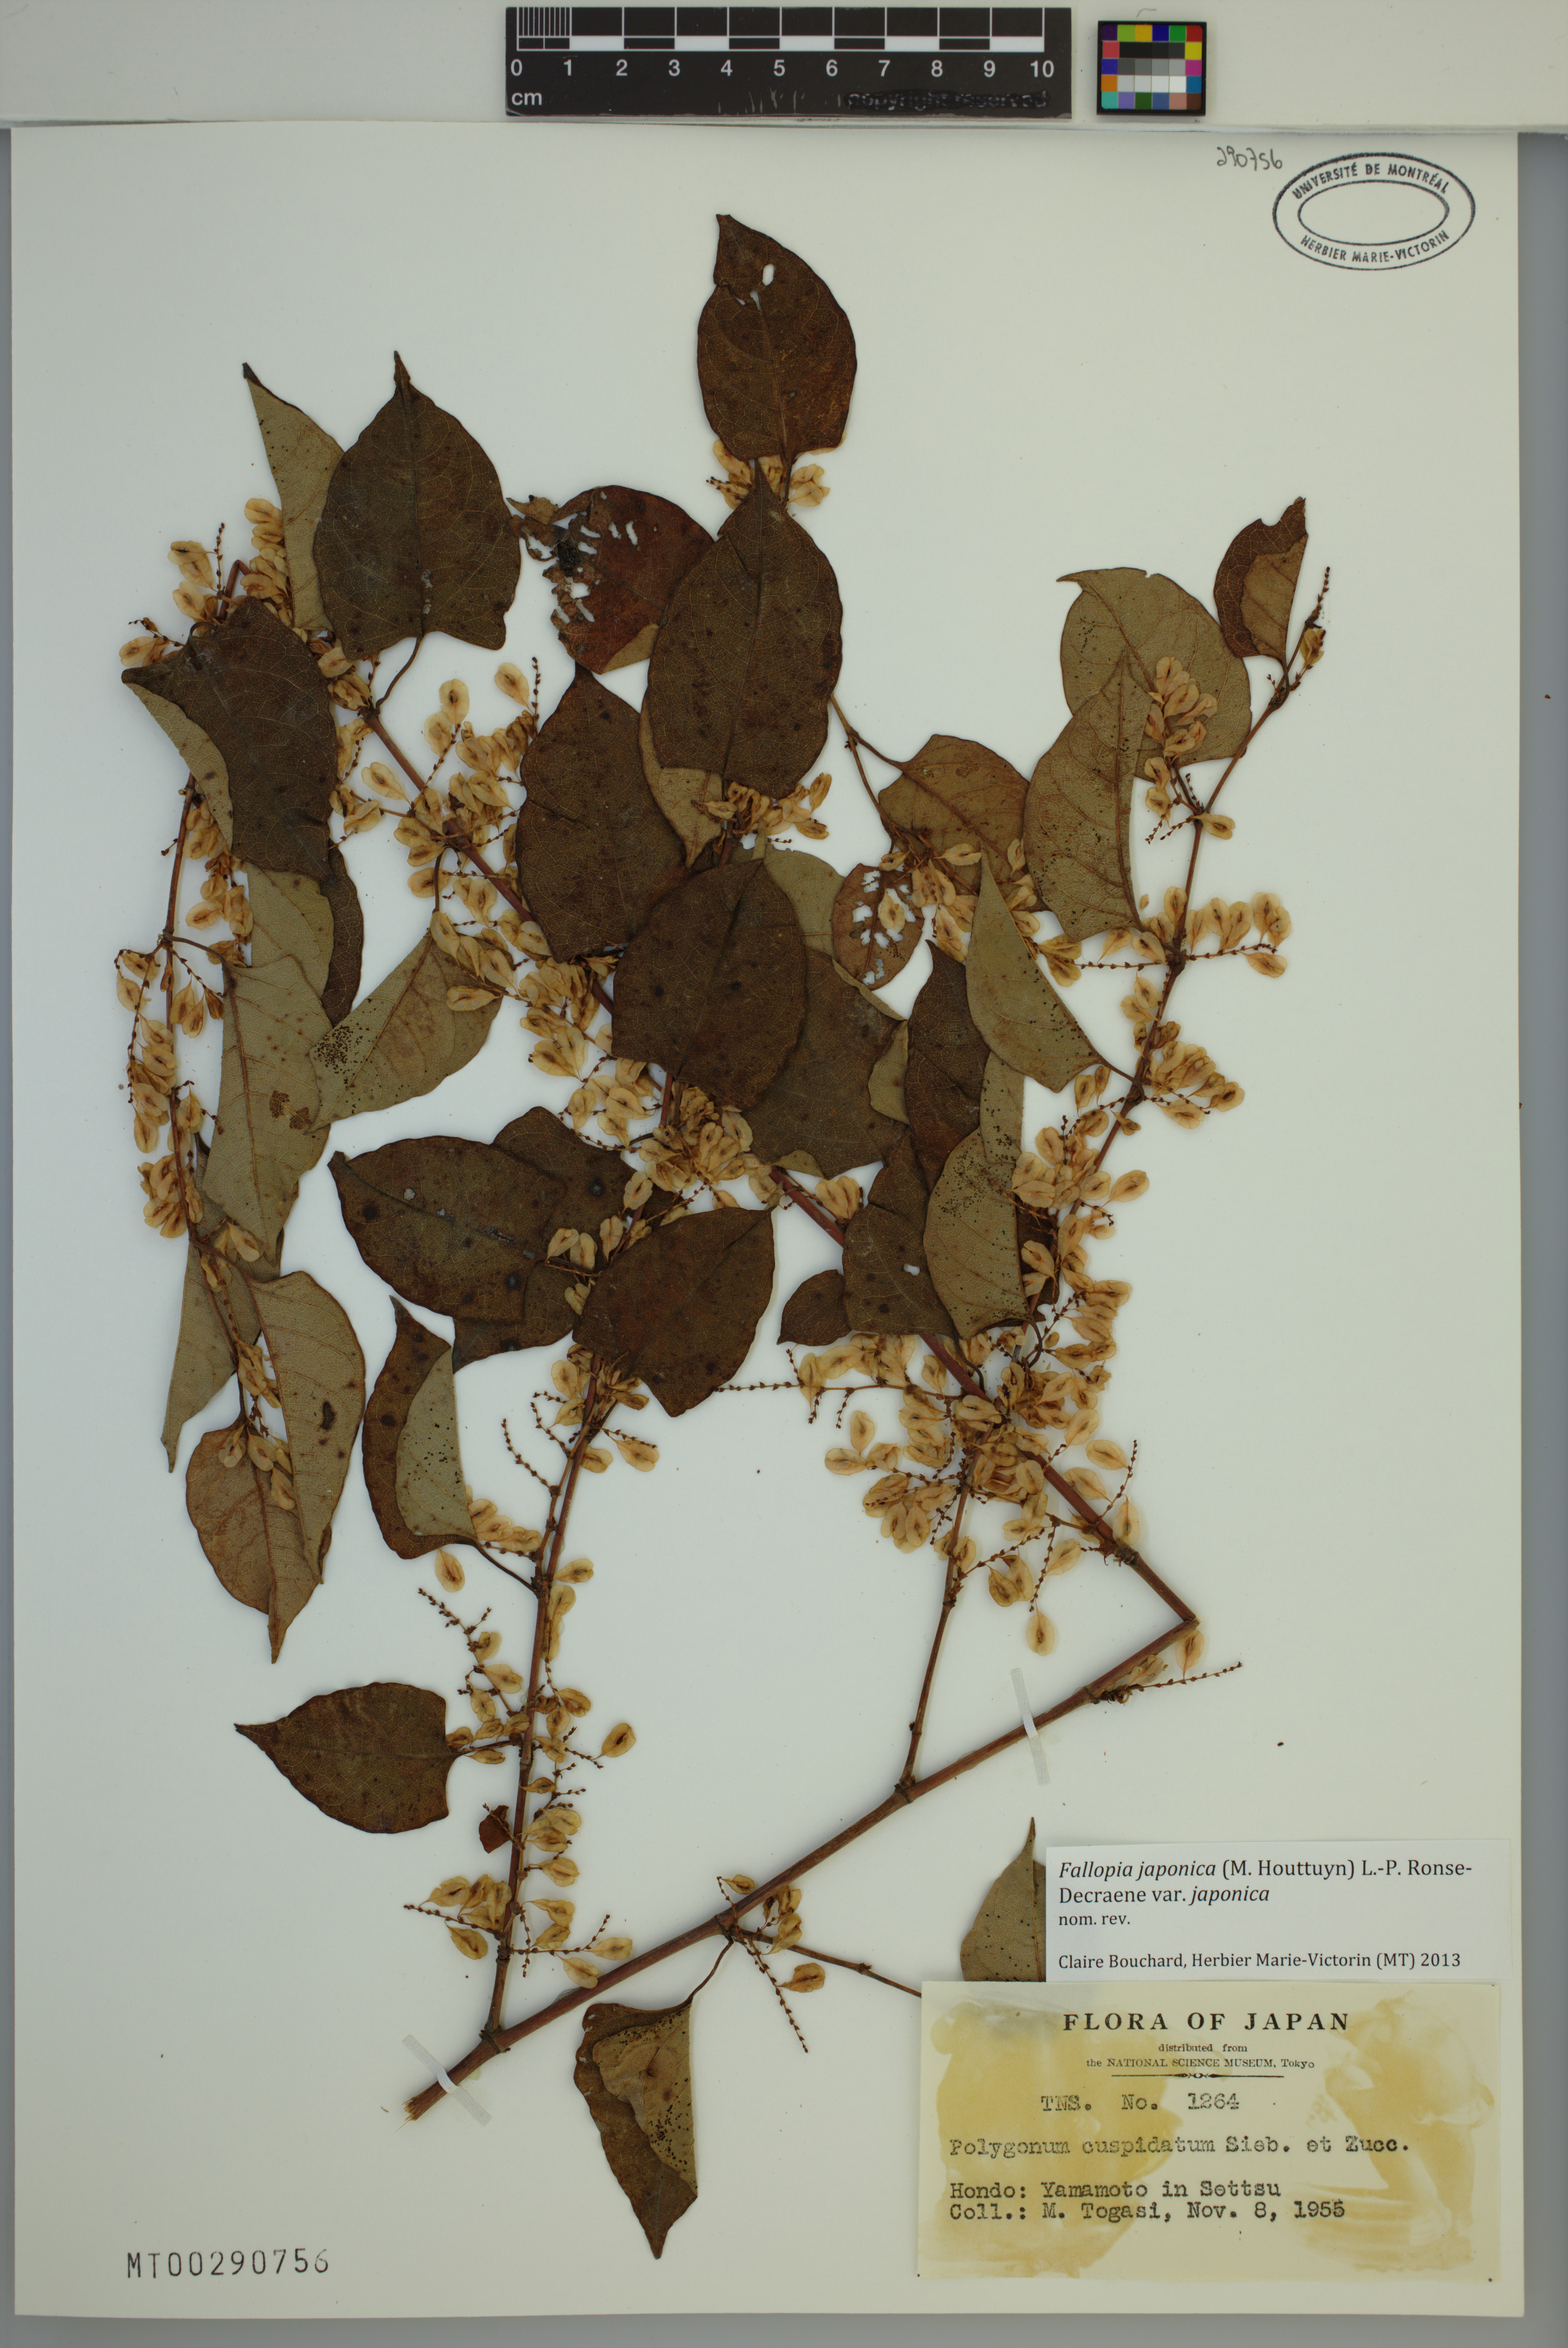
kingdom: Plantae
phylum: Tracheophyta
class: Magnoliopsida
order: Caryophyllales
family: Polygonaceae
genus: Reynoutria
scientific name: Reynoutria japonica
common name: Japanese knotweed
